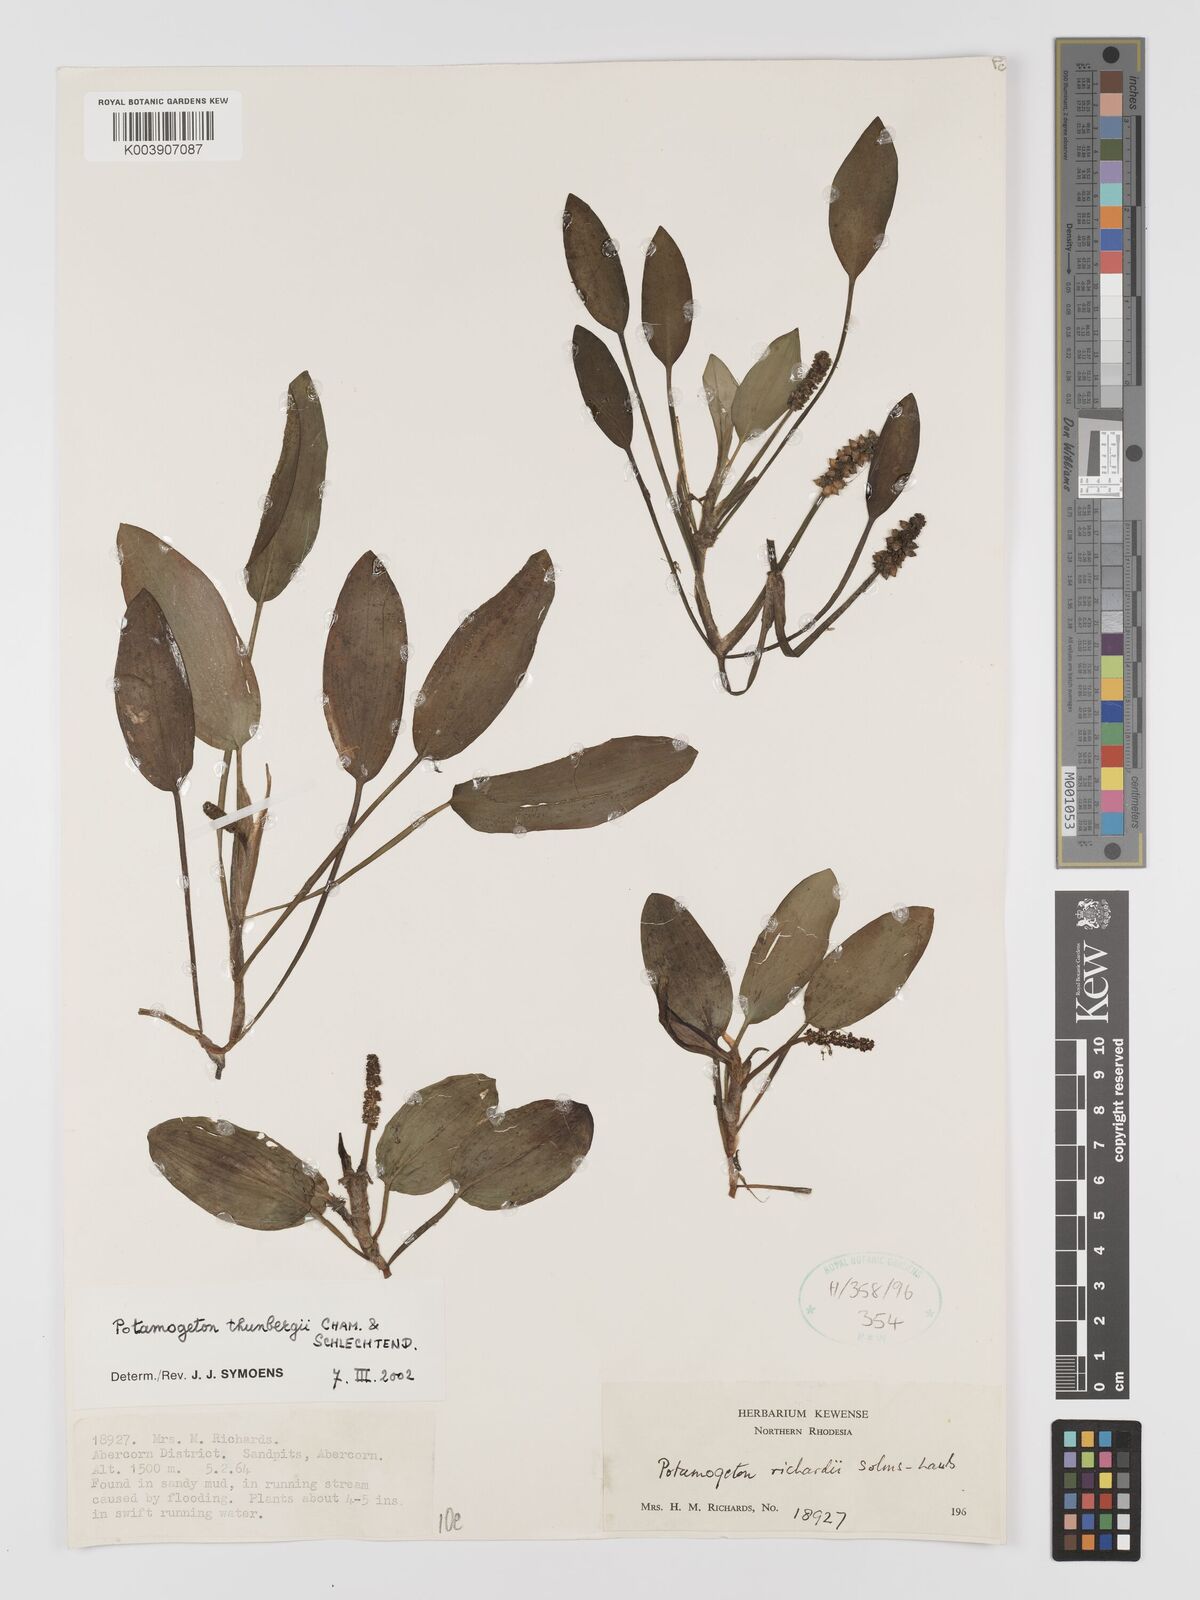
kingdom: Plantae
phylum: Tracheophyta
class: Liliopsida
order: Alismatales
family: Potamogetonaceae
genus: Potamogeton
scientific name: Potamogeton nodosus
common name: Loddon pondweed
